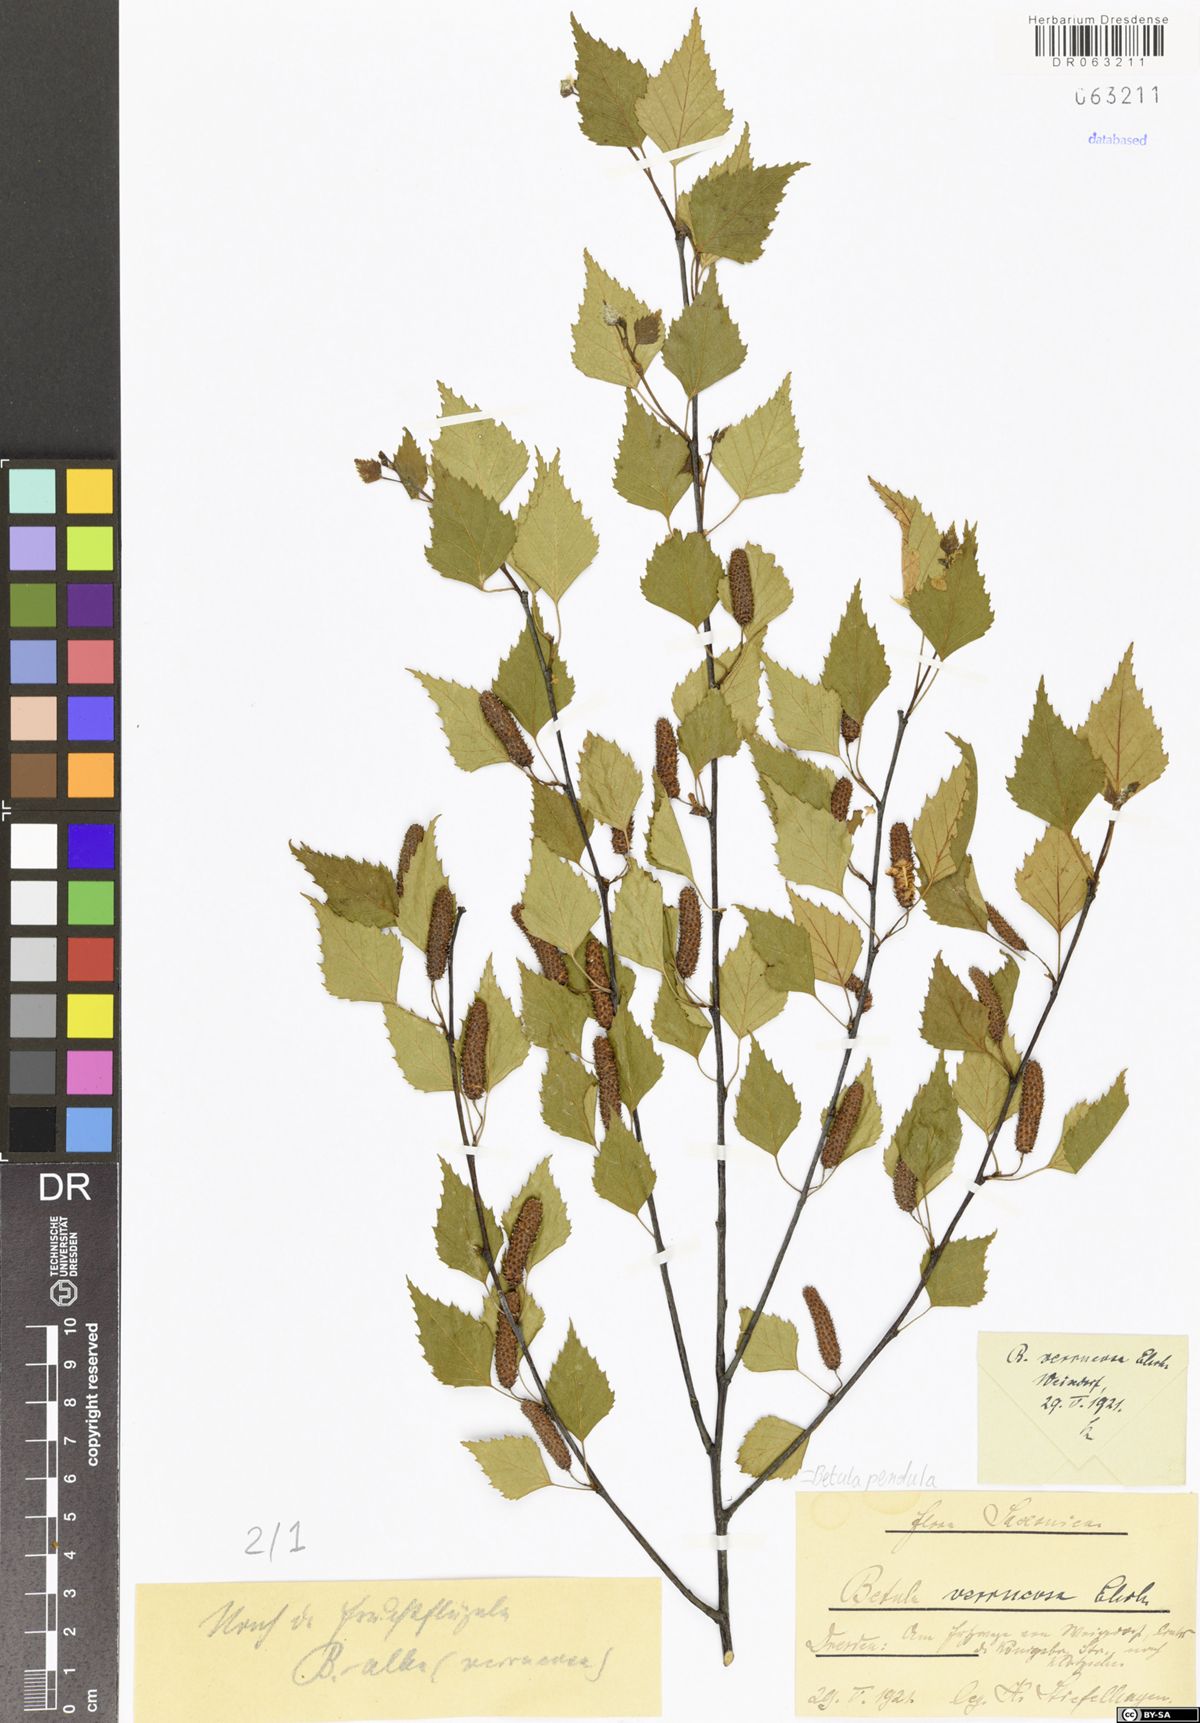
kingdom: Plantae
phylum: Tracheophyta
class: Magnoliopsida
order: Fagales
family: Betulaceae
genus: Betula
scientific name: Betula pendula
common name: Silver birch
